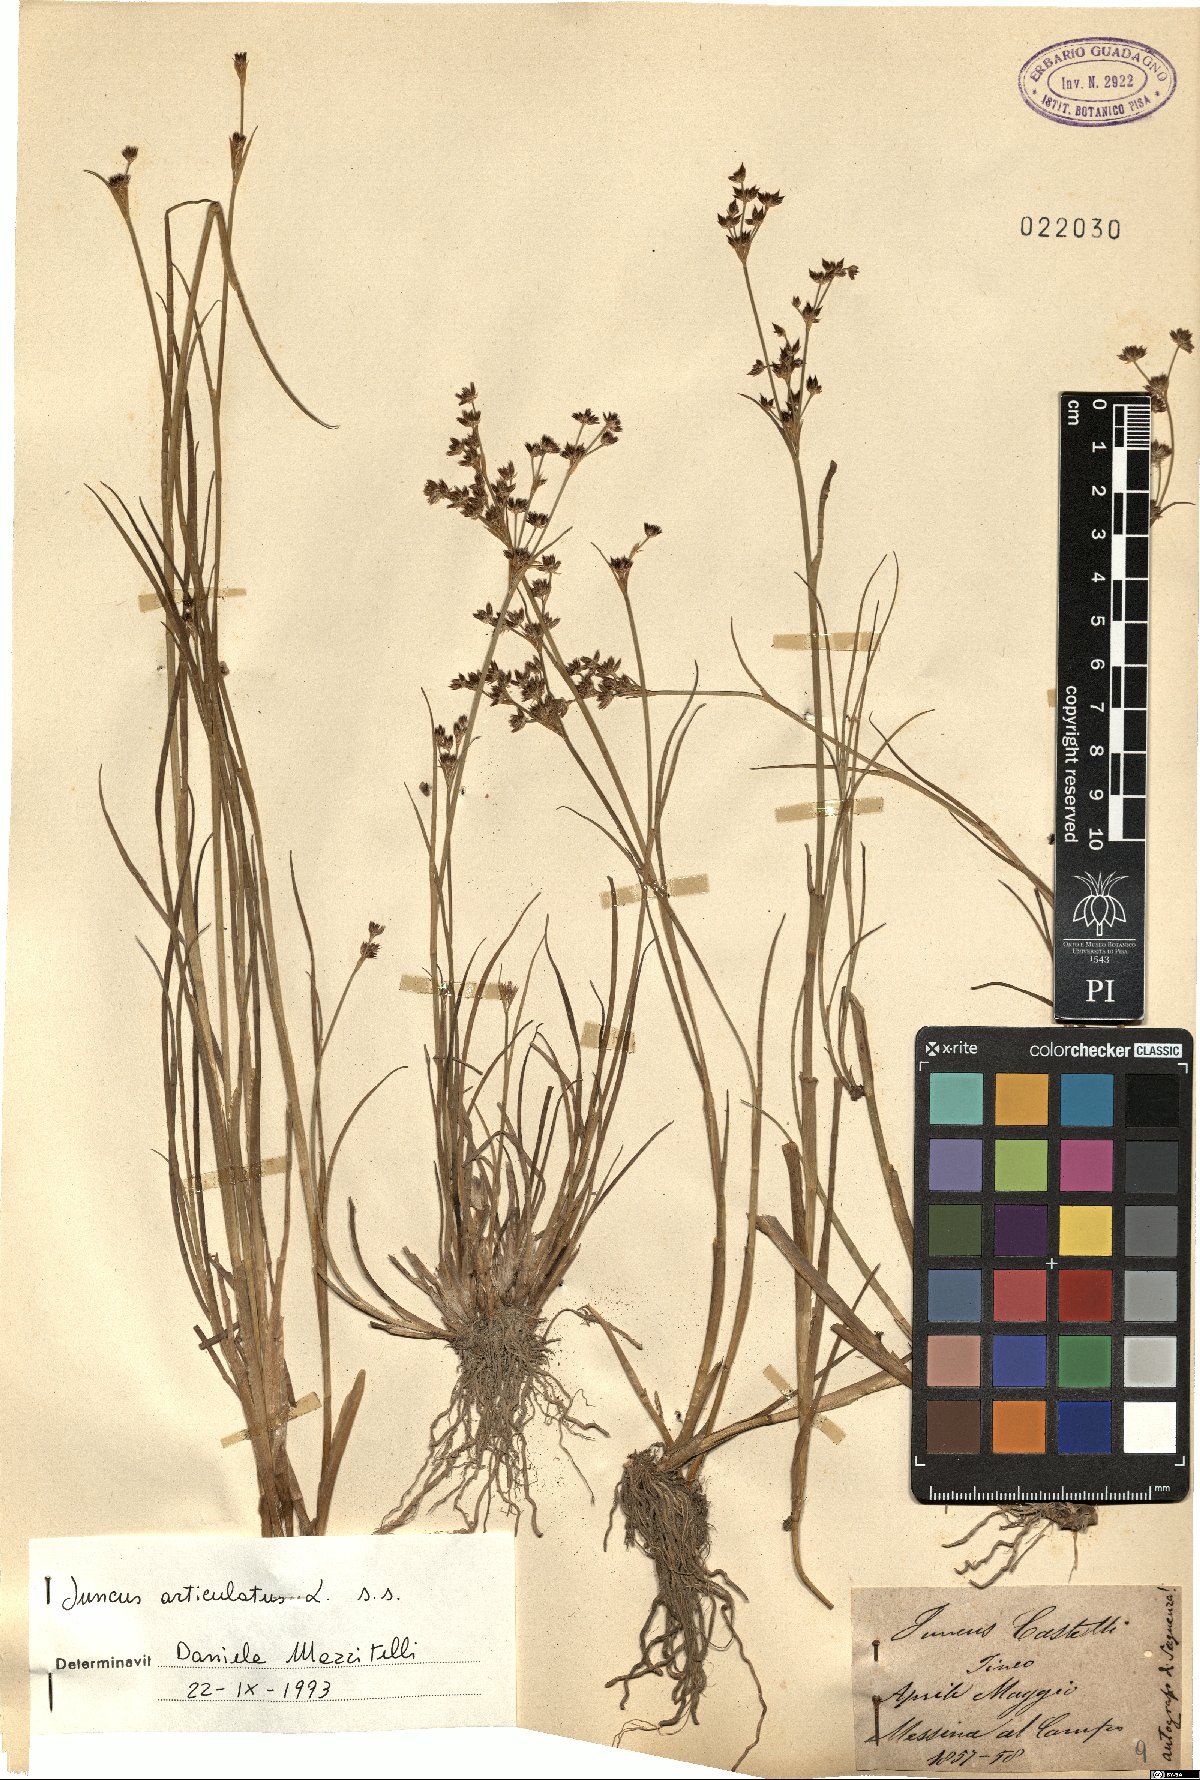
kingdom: Plantae
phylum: Tracheophyta
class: Liliopsida
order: Poales
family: Juncaceae
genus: Juncus
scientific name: Juncus articulatus
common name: Jointed rush
